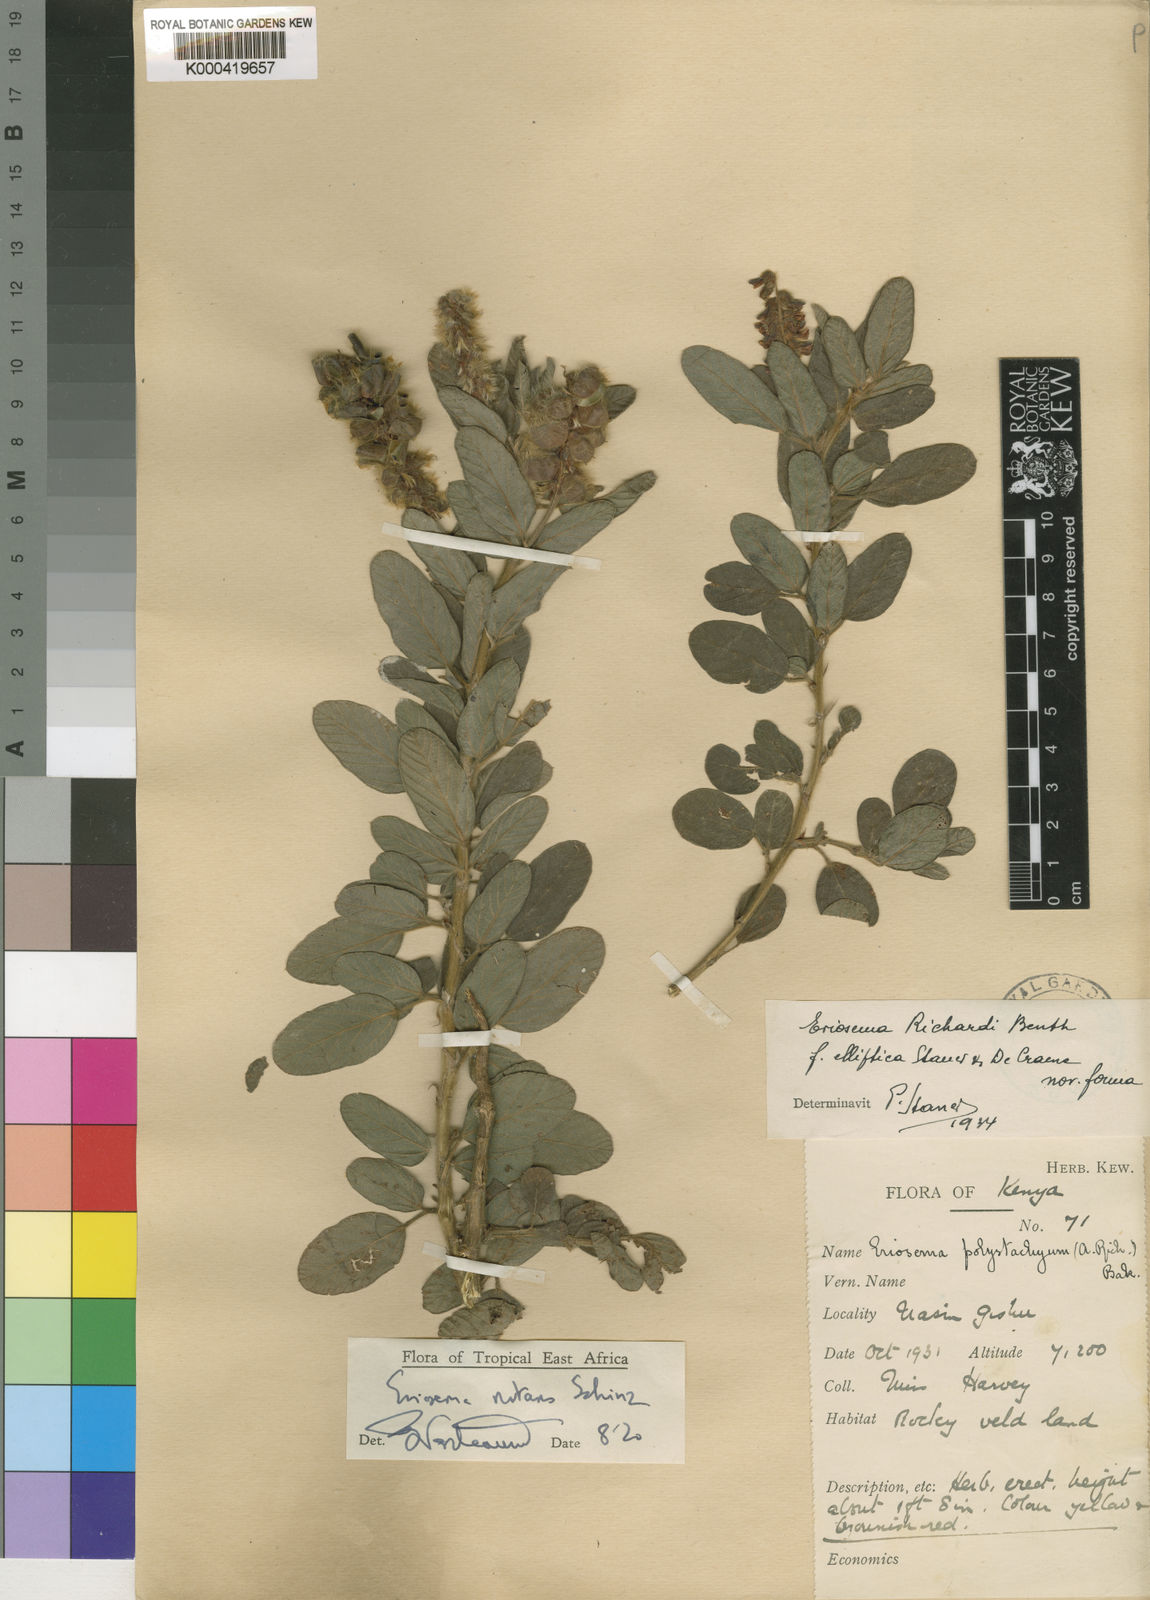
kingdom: Plantae
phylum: Tracheophyta
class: Magnoliopsida
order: Fabales
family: Fabaceae
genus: Eriosema
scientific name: Eriosema nutans
